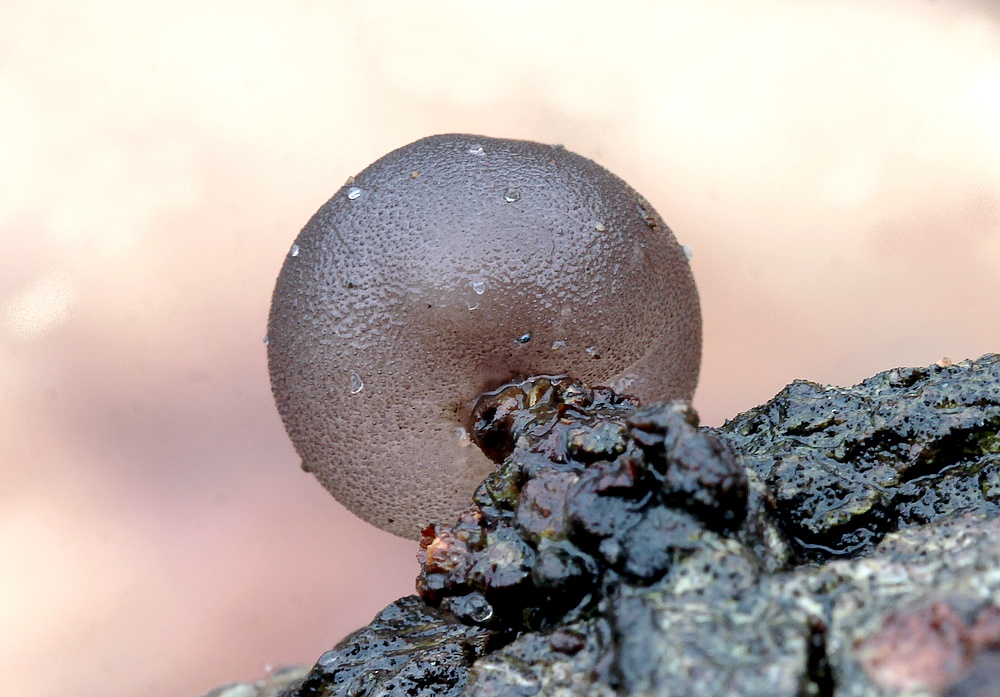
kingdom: Fungi
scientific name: Fungi
